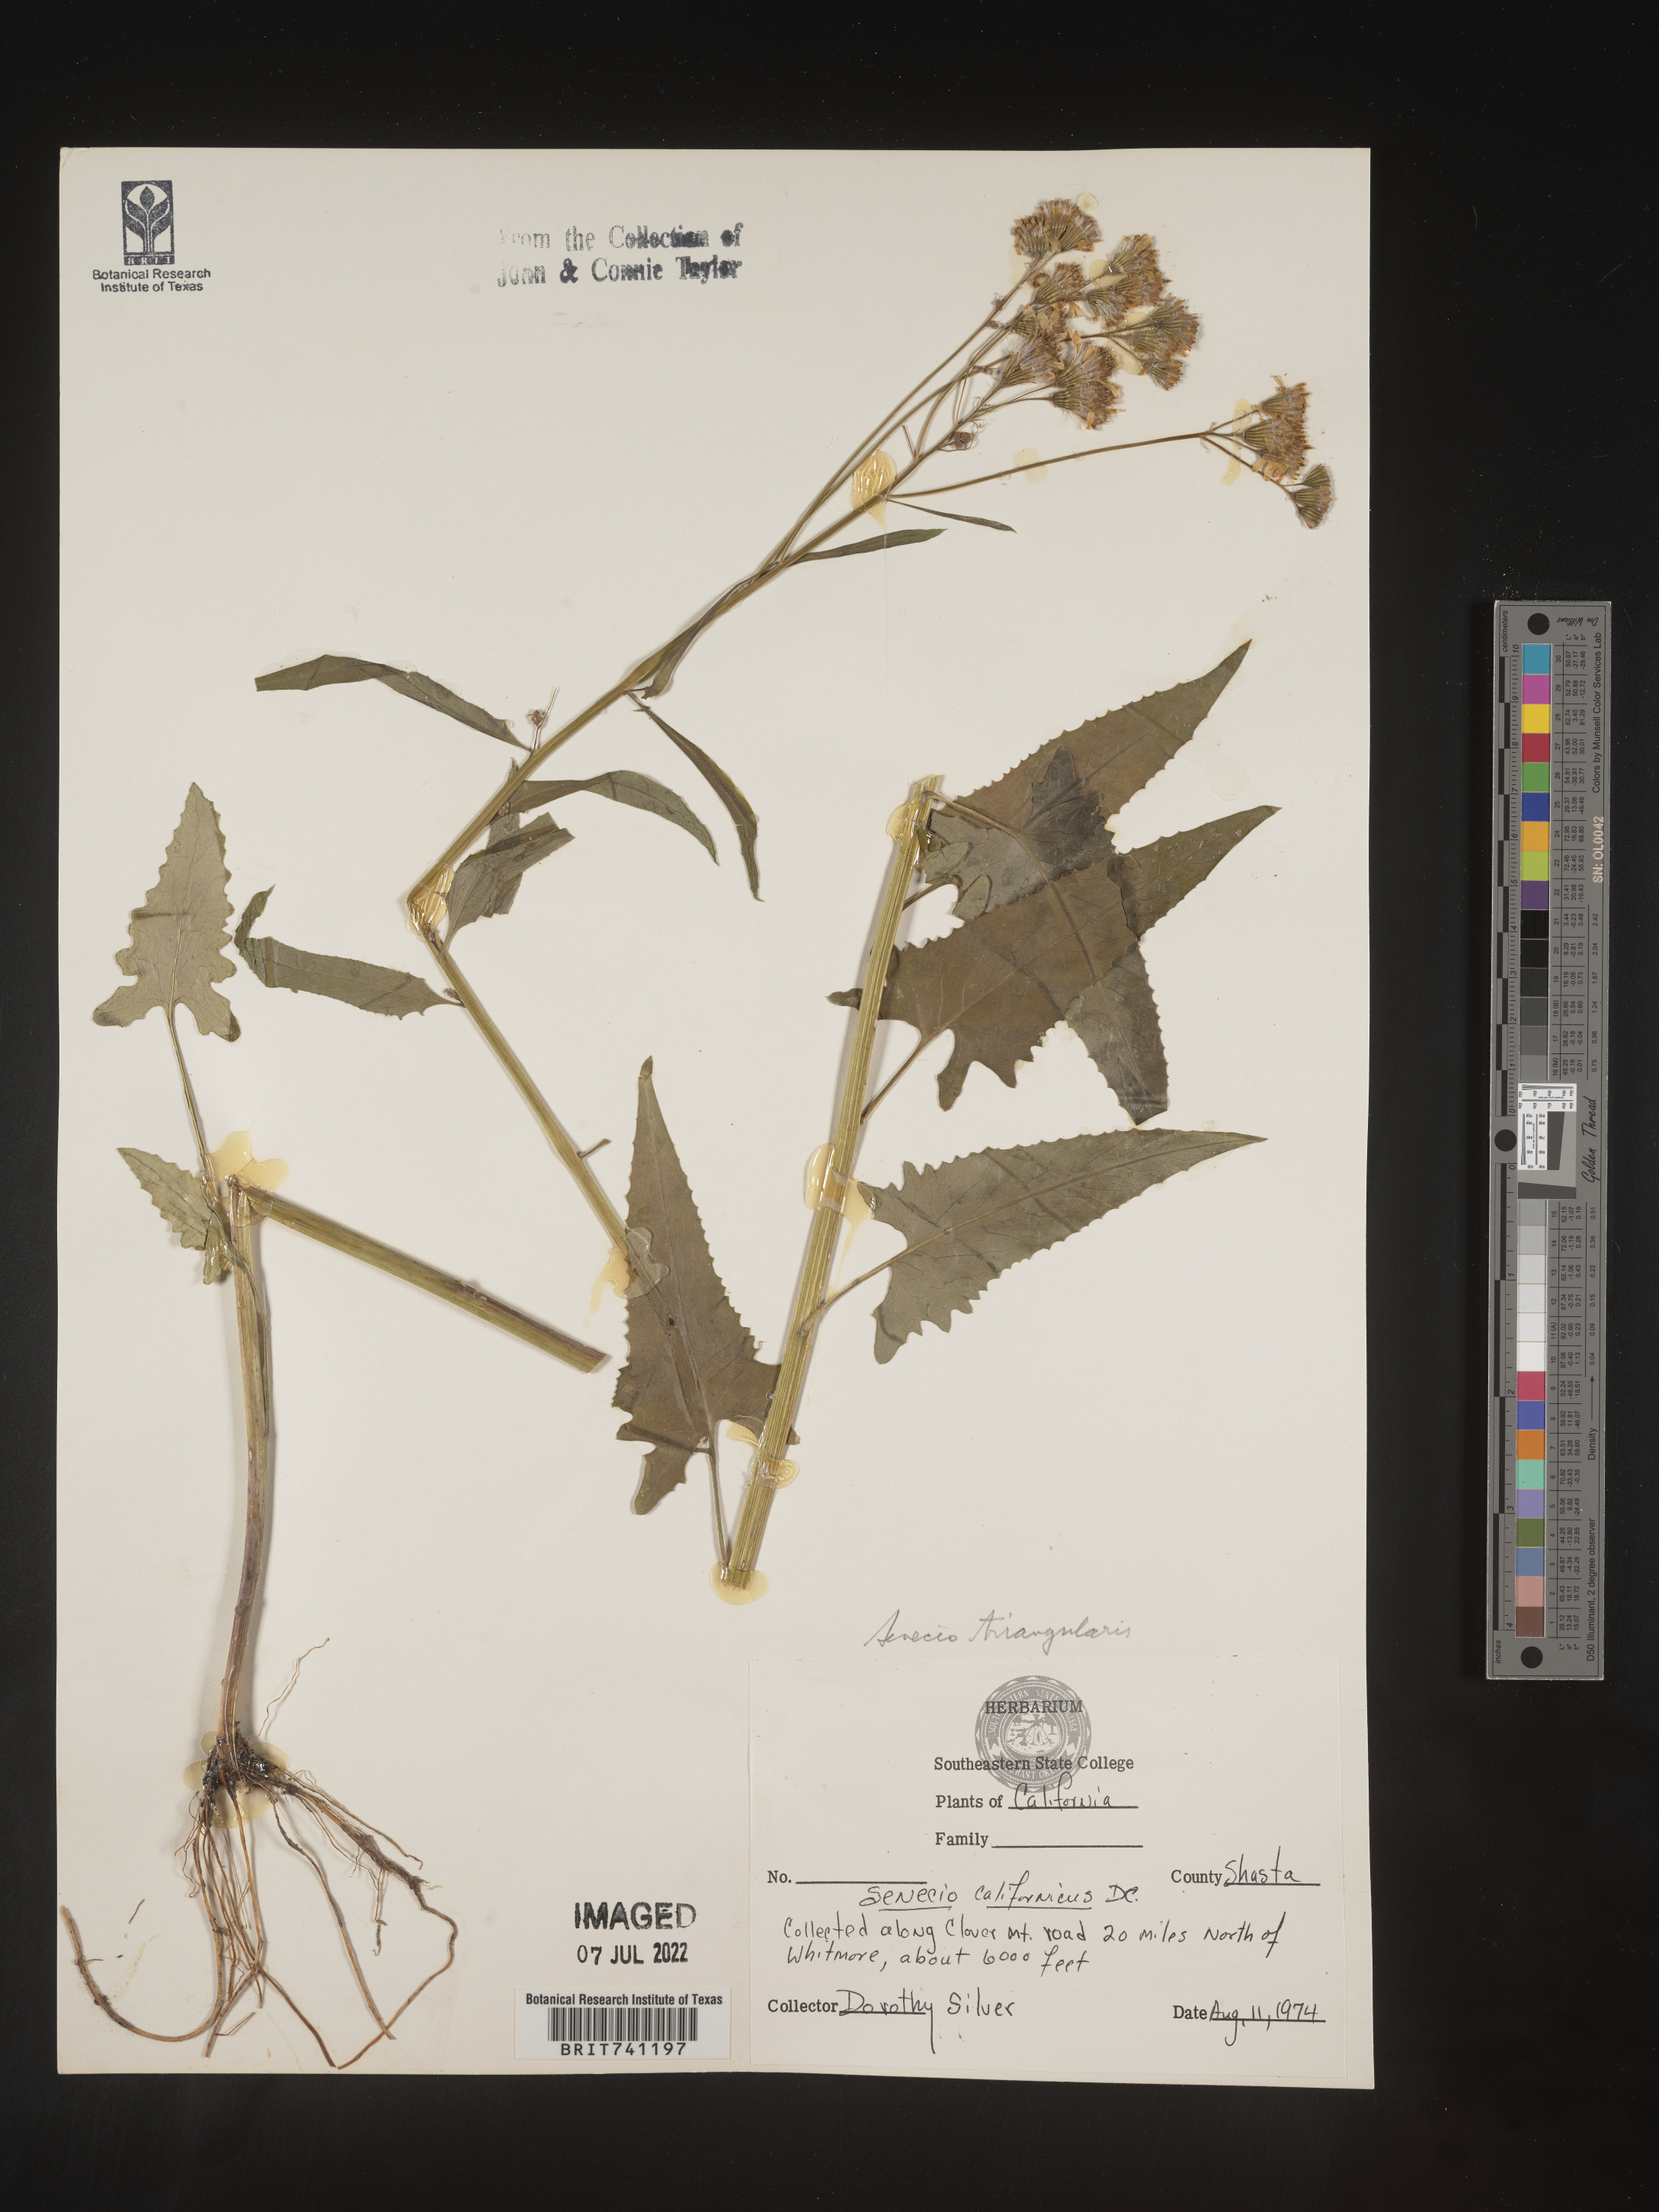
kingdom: Plantae
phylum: Tracheophyta
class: Magnoliopsida
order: Asterales
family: Asteraceae
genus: Senecio
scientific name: Senecio triangularis
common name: Arrowleaf butterweed
